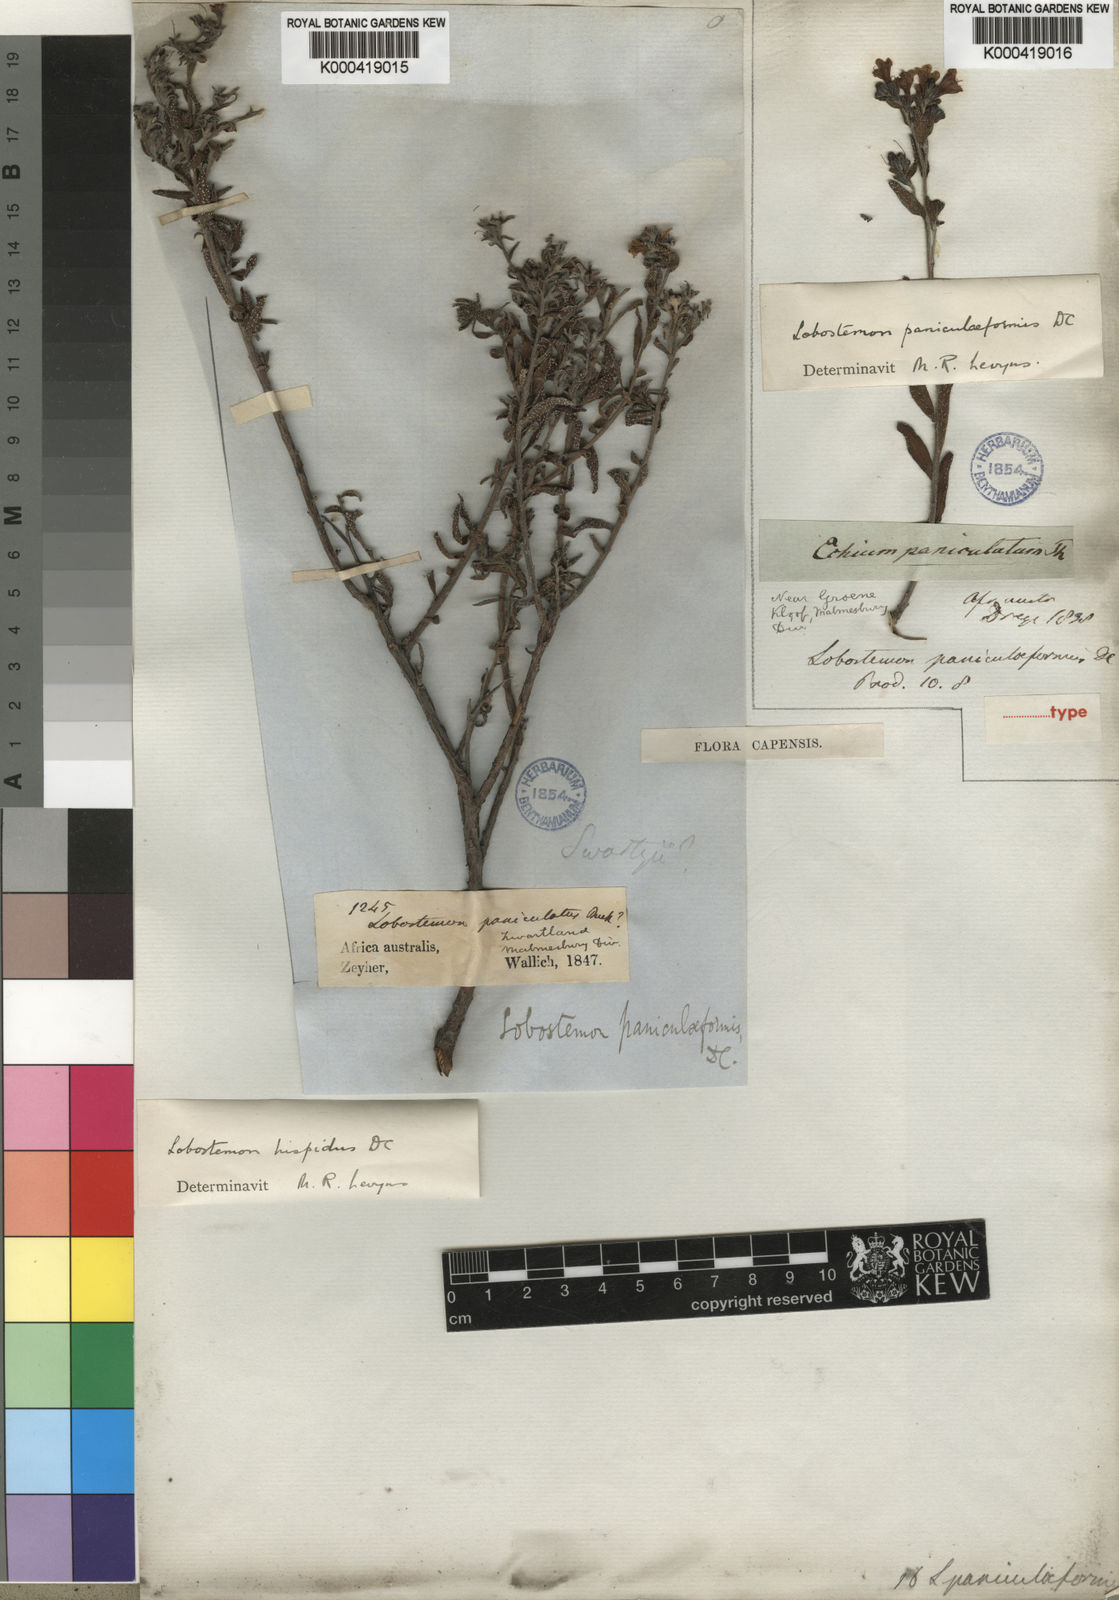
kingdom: Plantae
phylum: Tracheophyta
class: Magnoliopsida
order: Boraginales
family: Boraginaceae
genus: Lobostemon
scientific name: Lobostemon paniculatus
